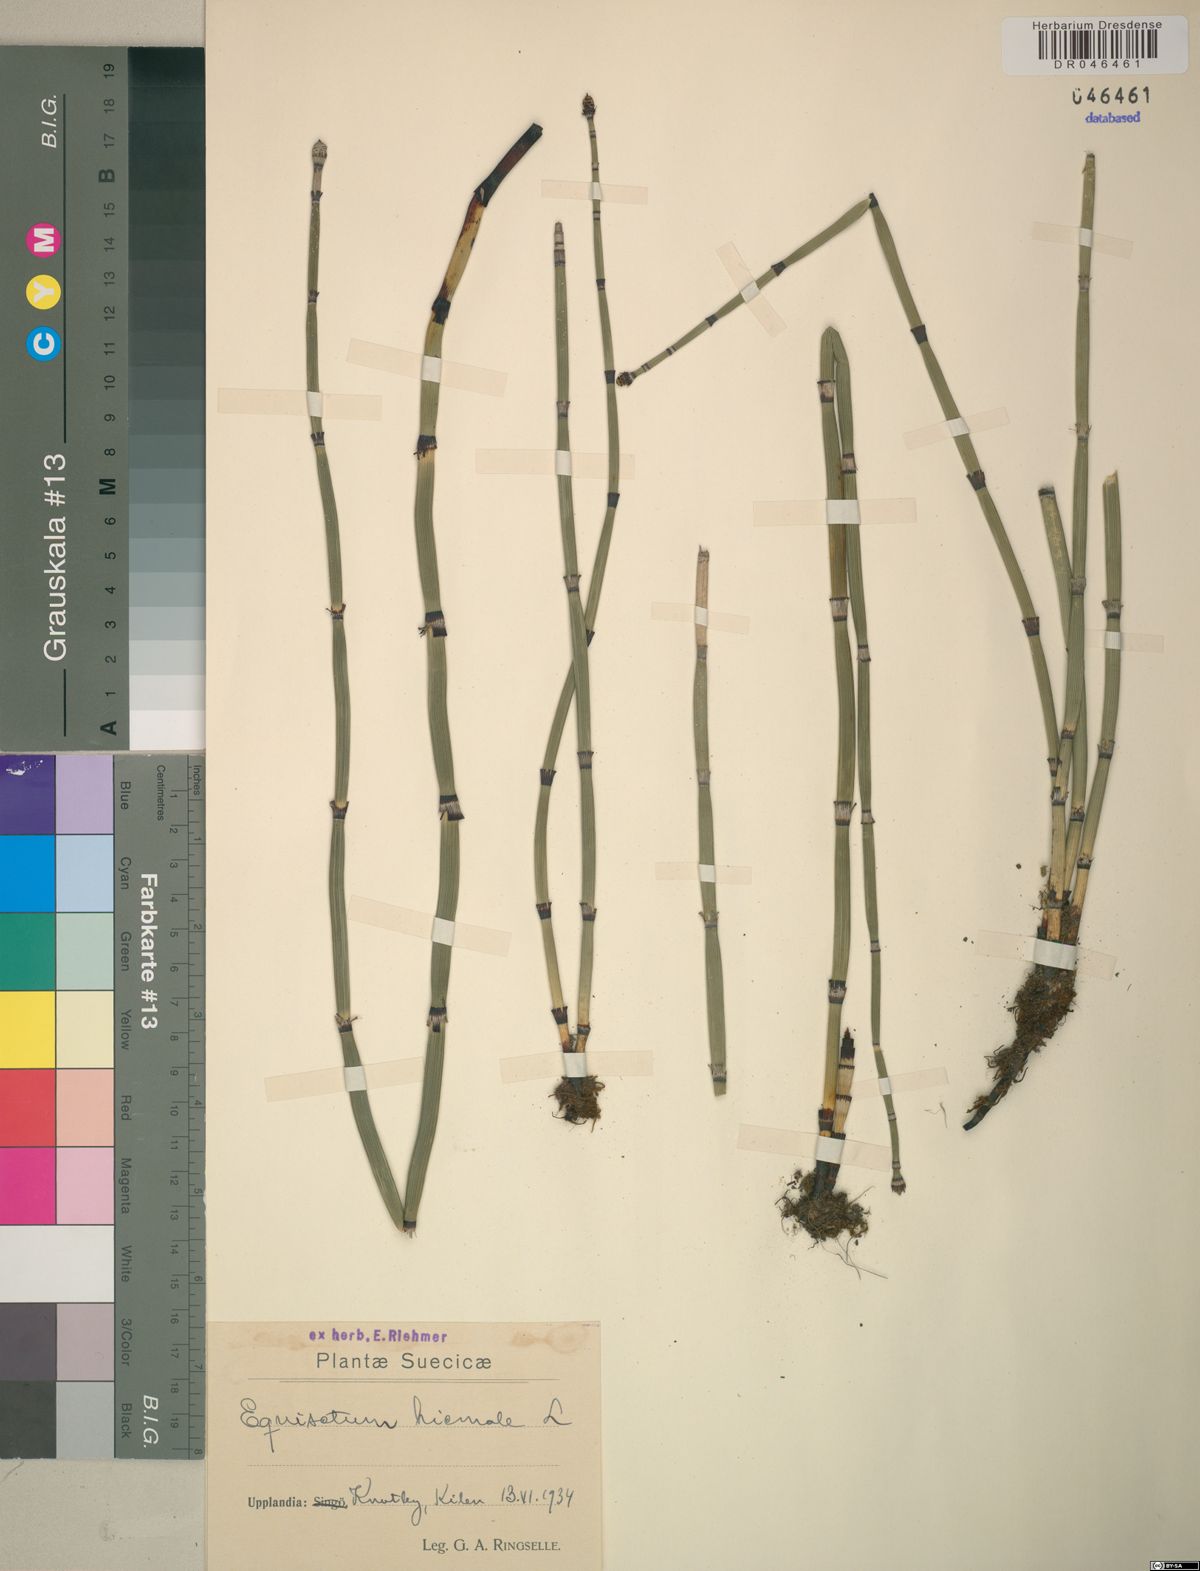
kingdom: Plantae
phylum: Tracheophyta
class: Polypodiopsida
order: Equisetales
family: Equisetaceae
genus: Equisetum
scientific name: Equisetum hyemale
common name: Rough horsetail
